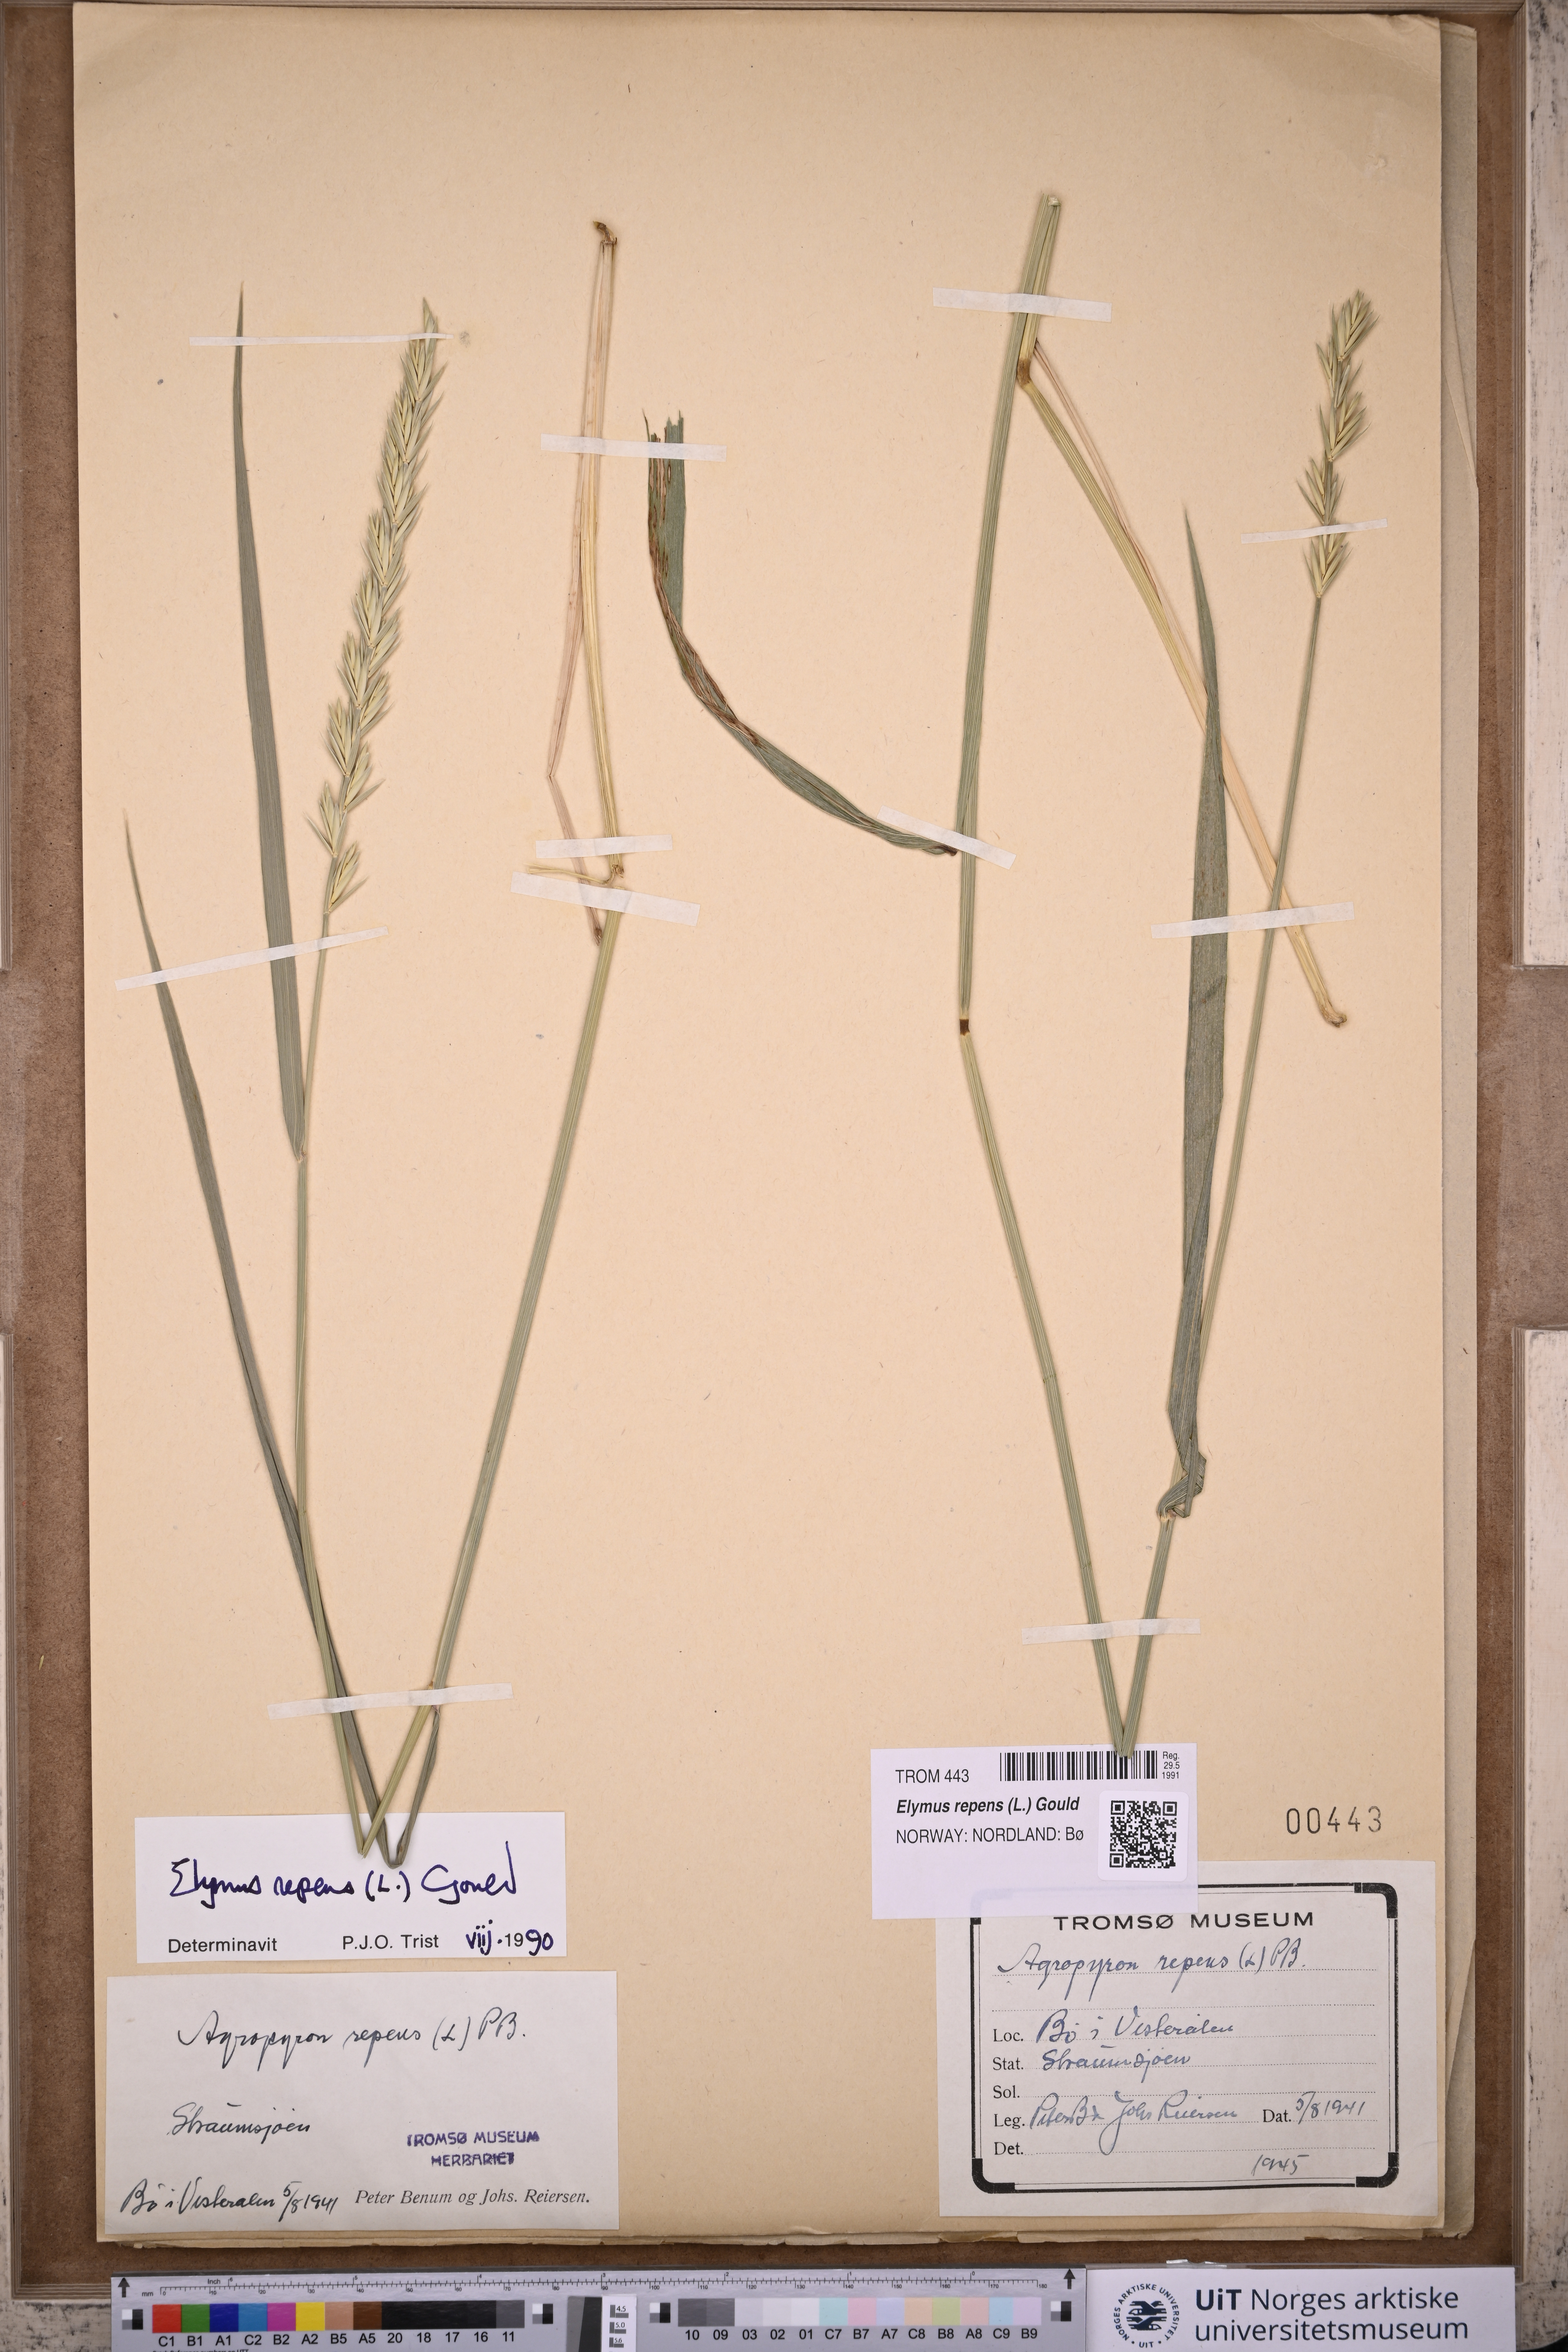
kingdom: Plantae
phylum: Tracheophyta
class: Liliopsida
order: Poales
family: Poaceae
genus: Elymus
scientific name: Elymus repens
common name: Quackgrass
